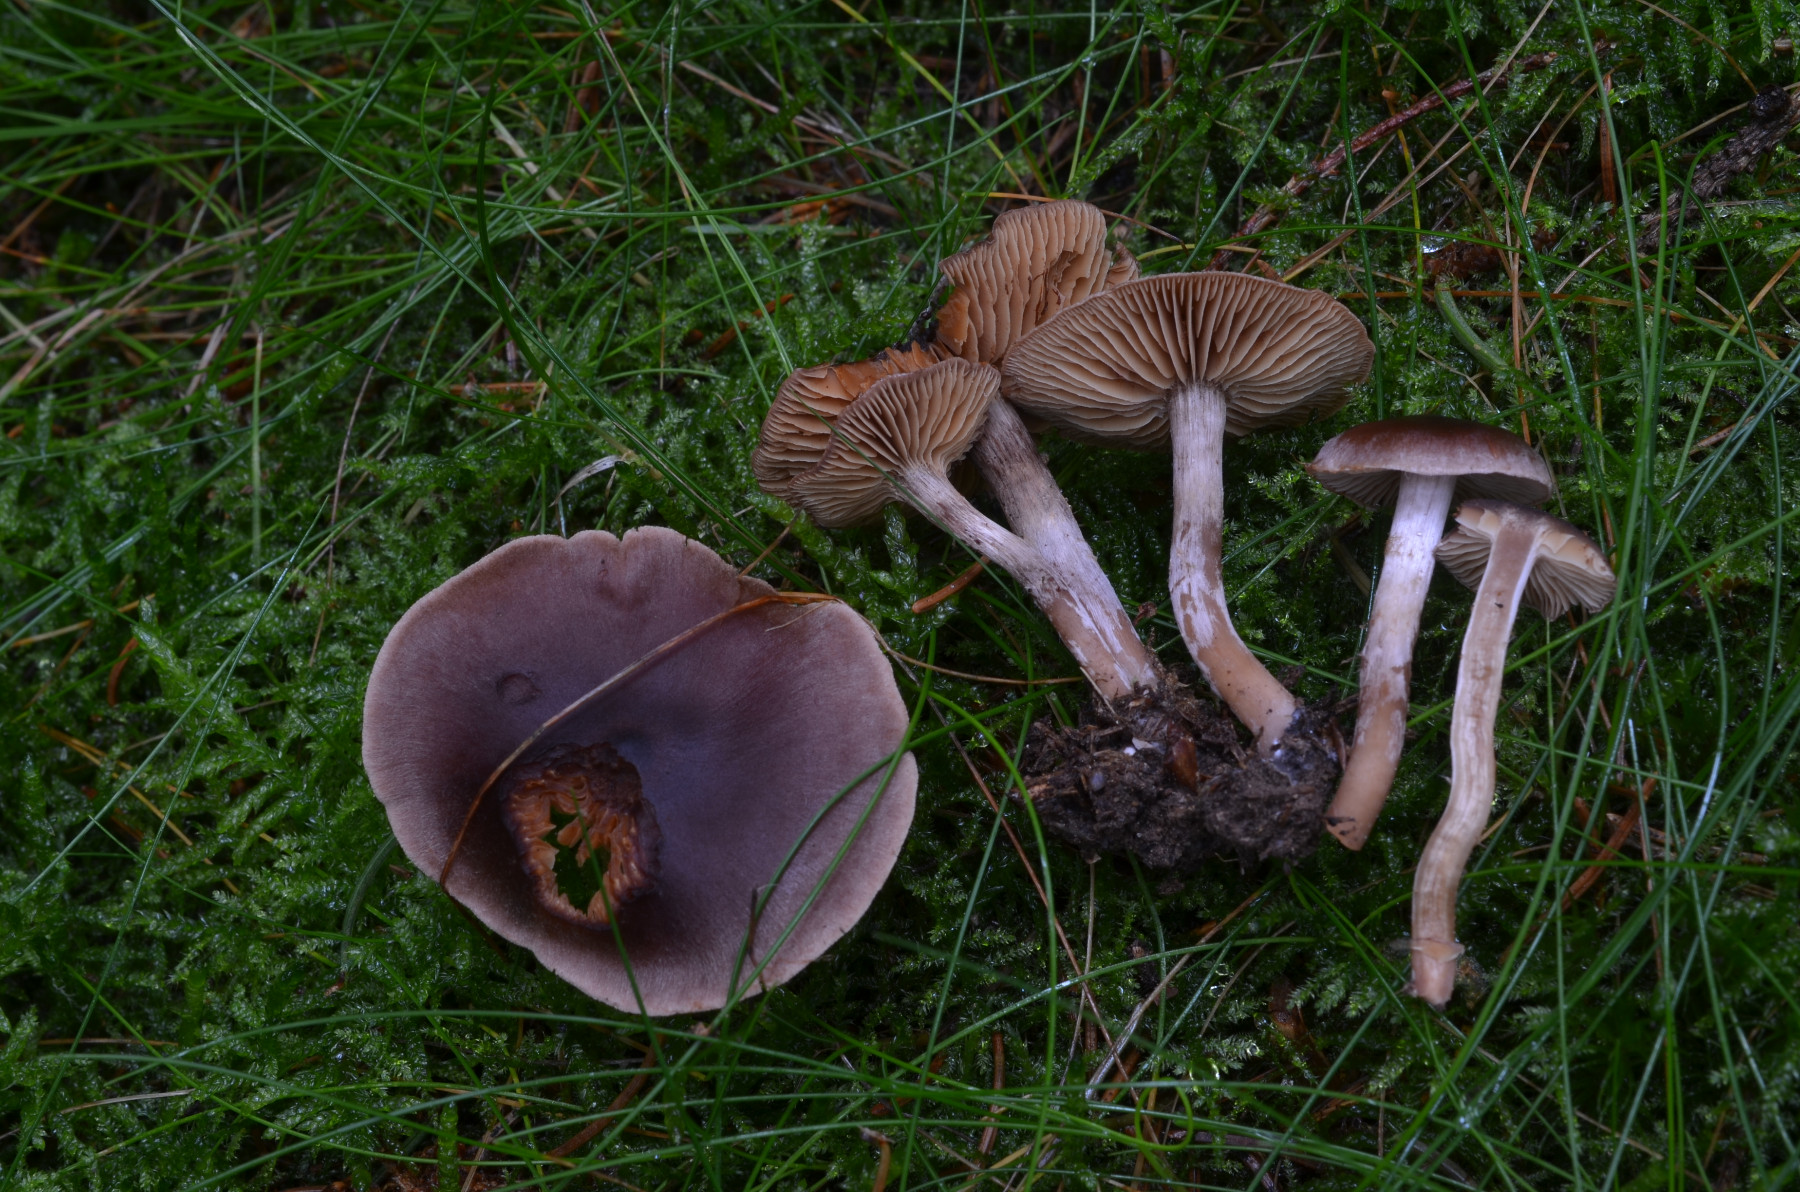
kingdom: Fungi
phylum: Basidiomycota
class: Agaricomycetes
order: Agaricales
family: Cortinariaceae
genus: Cortinarius
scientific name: Cortinarius heterodepressus
